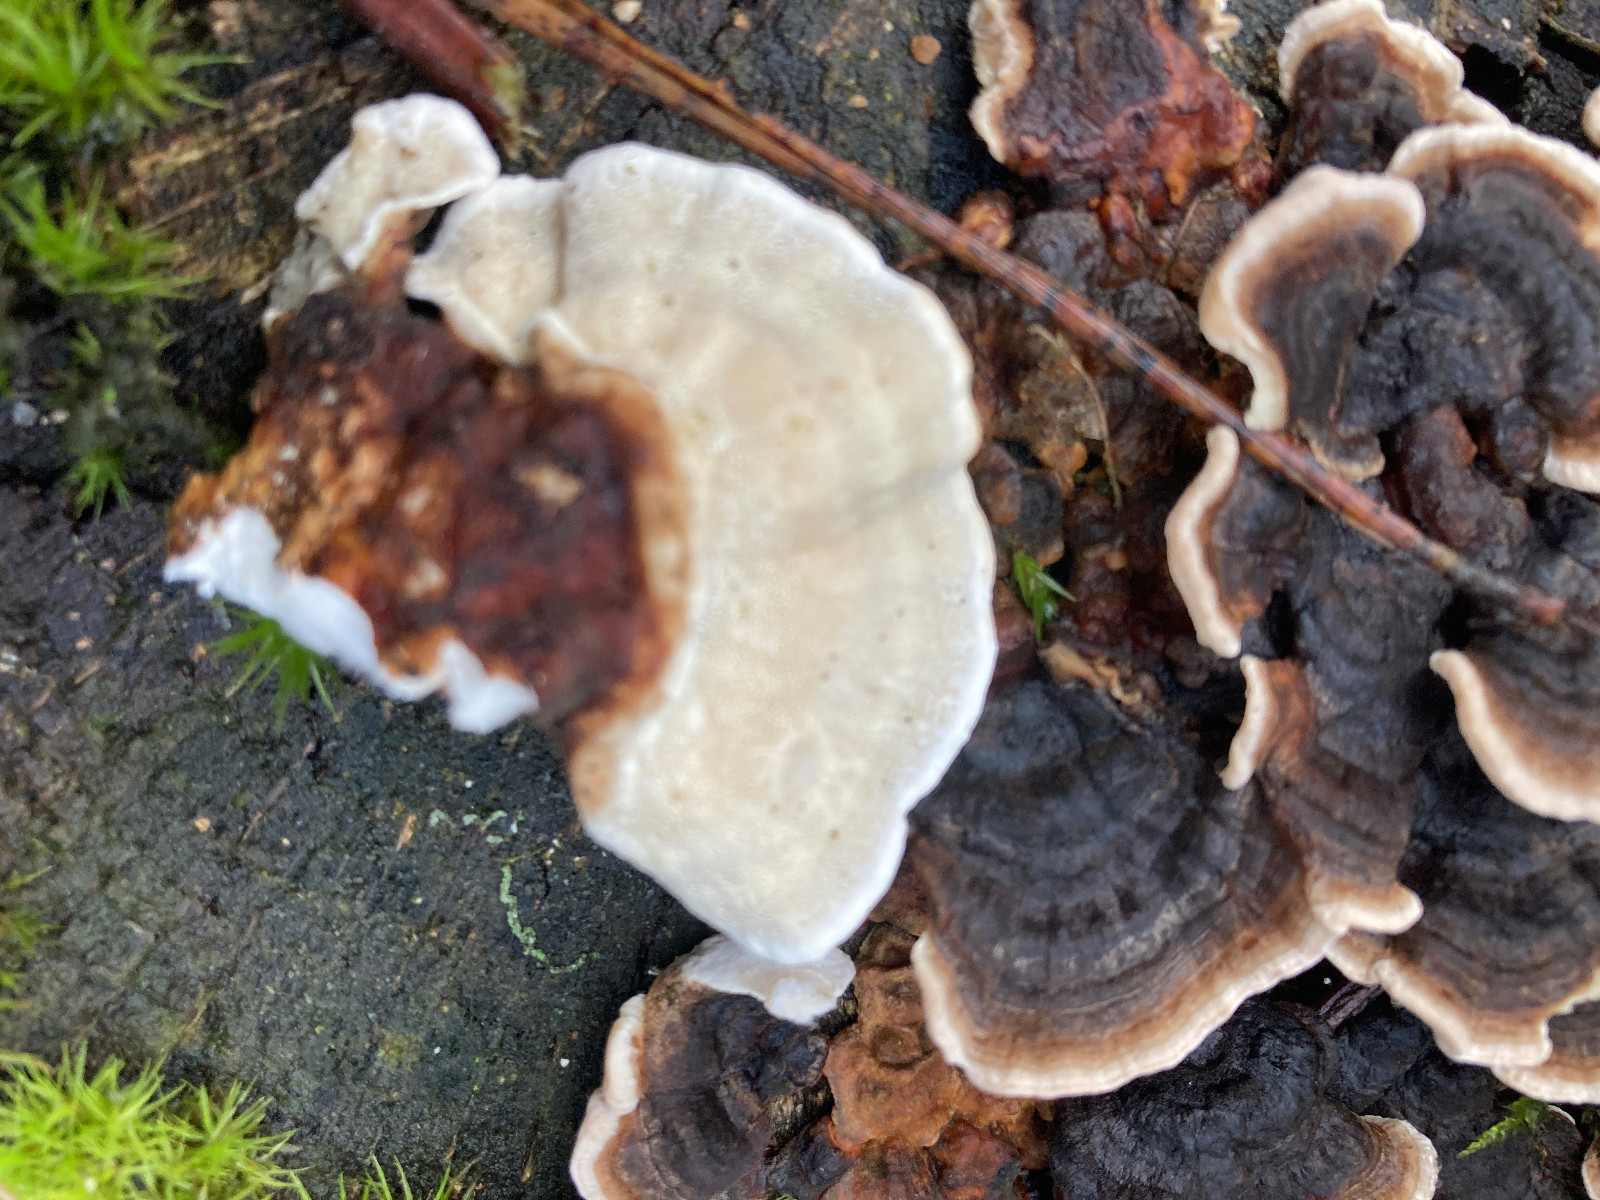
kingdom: Fungi
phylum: Basidiomycota
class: Agaricomycetes
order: Polyporales
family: Polyporaceae
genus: Trametes
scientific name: Trametes versicolor
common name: broget læderporesvamp
